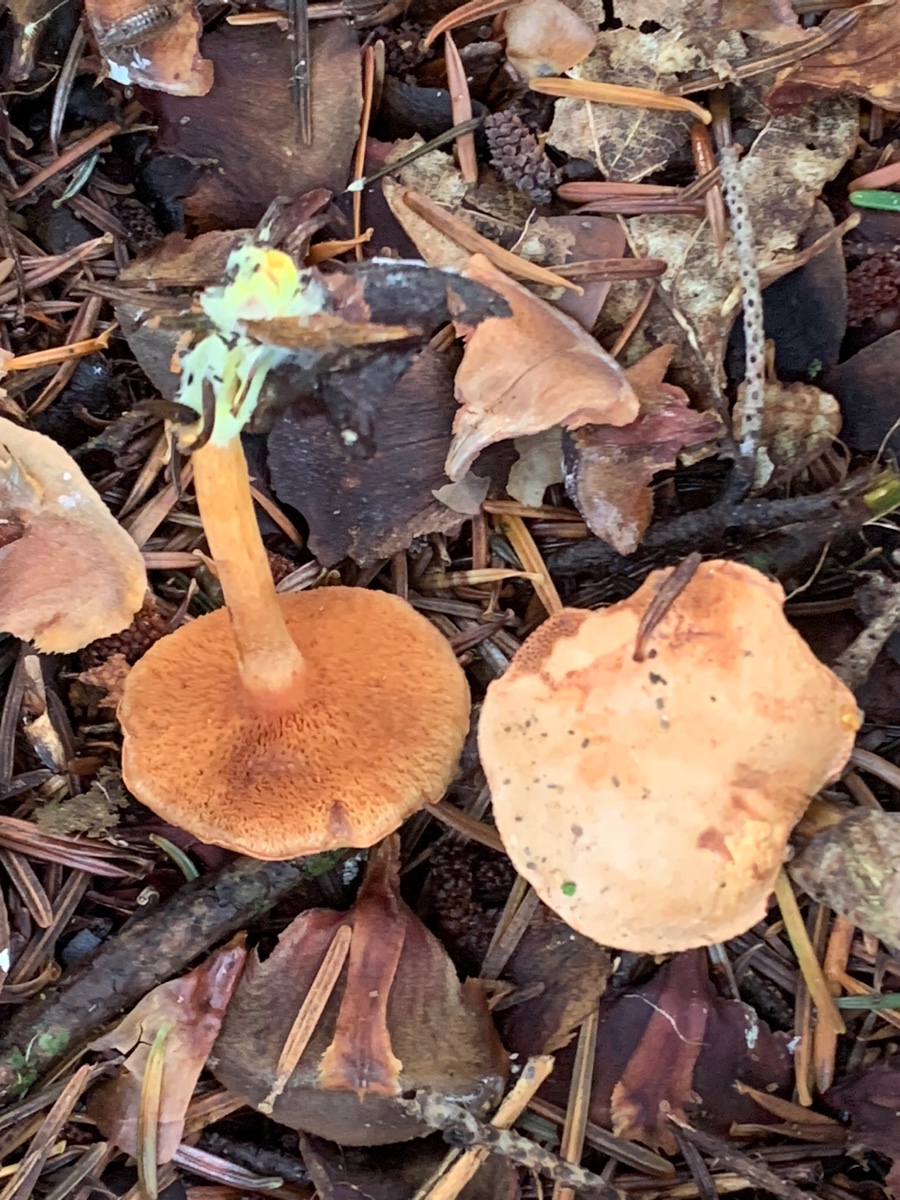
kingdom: Fungi
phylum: Basidiomycota
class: Agaricomycetes
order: Boletales
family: Boletaceae
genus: Chalciporus
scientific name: Chalciporus piperatus
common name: peberrørhat
